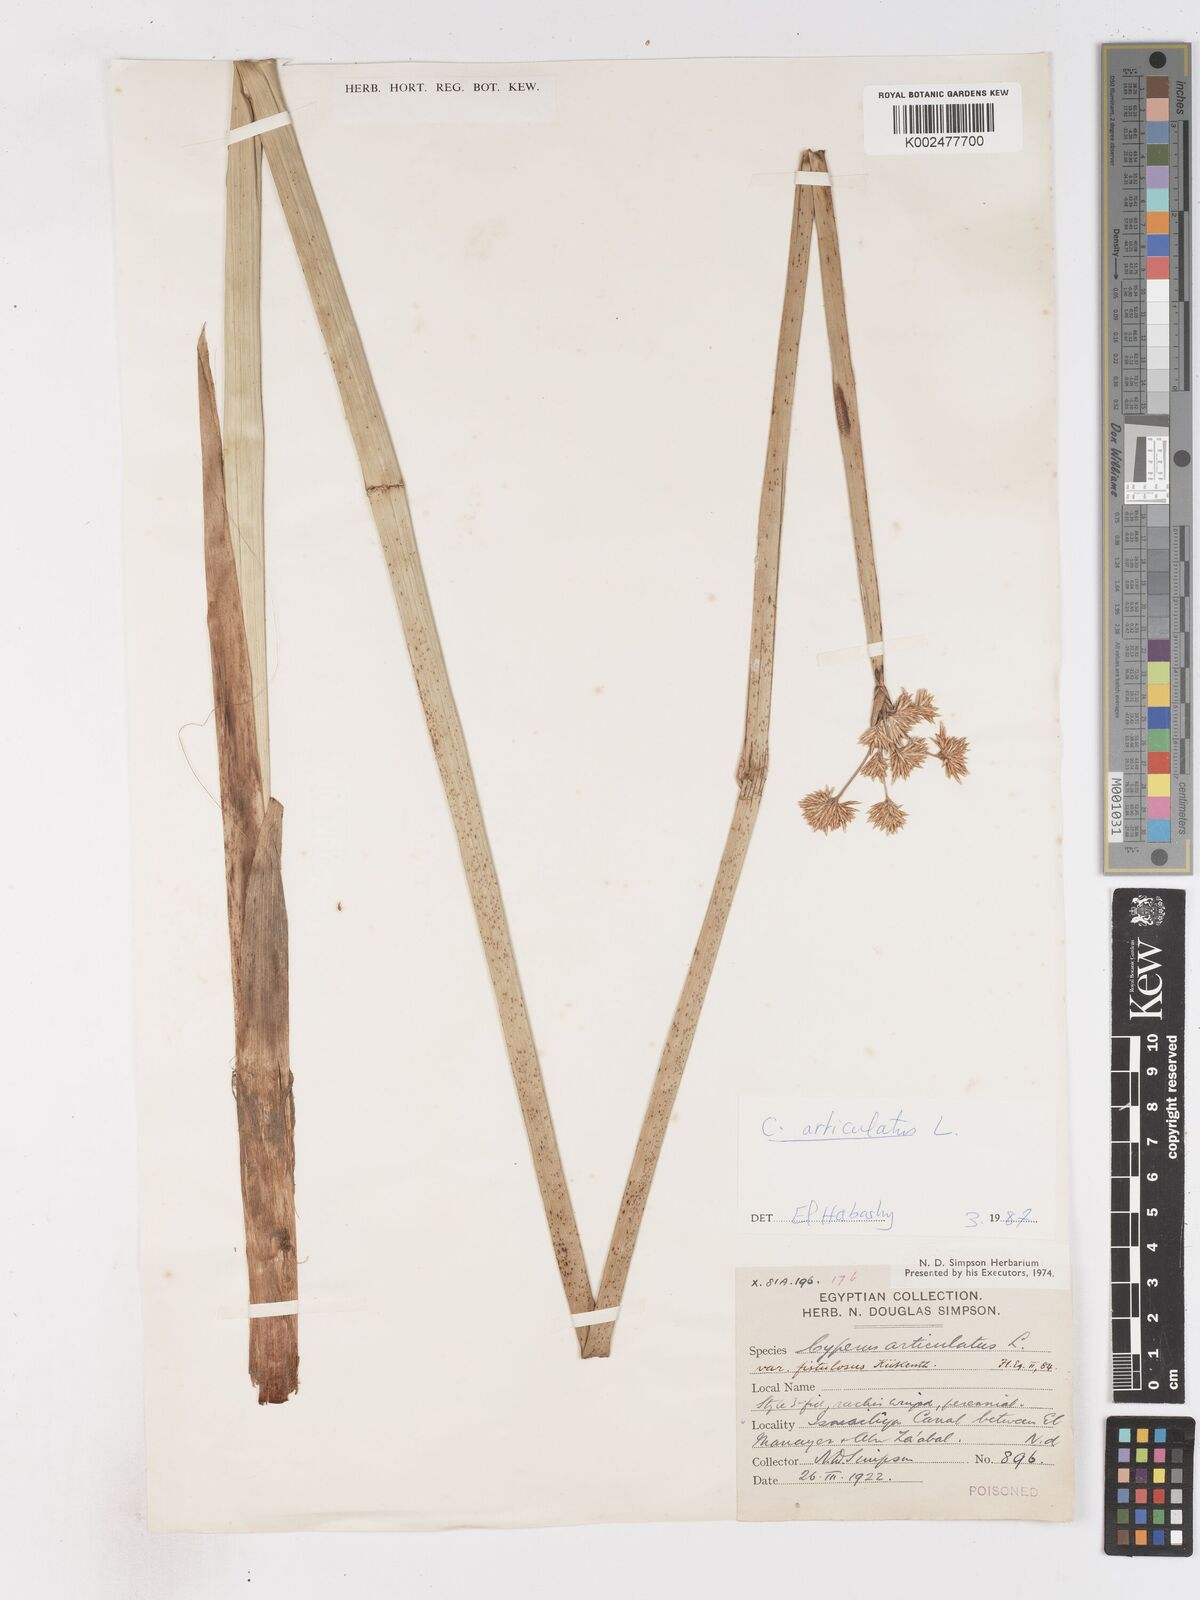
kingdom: Plantae
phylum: Tracheophyta
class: Liliopsida
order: Poales
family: Cyperaceae
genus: Cyperus
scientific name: Cyperus articulatus
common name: Jointed flatsedge
